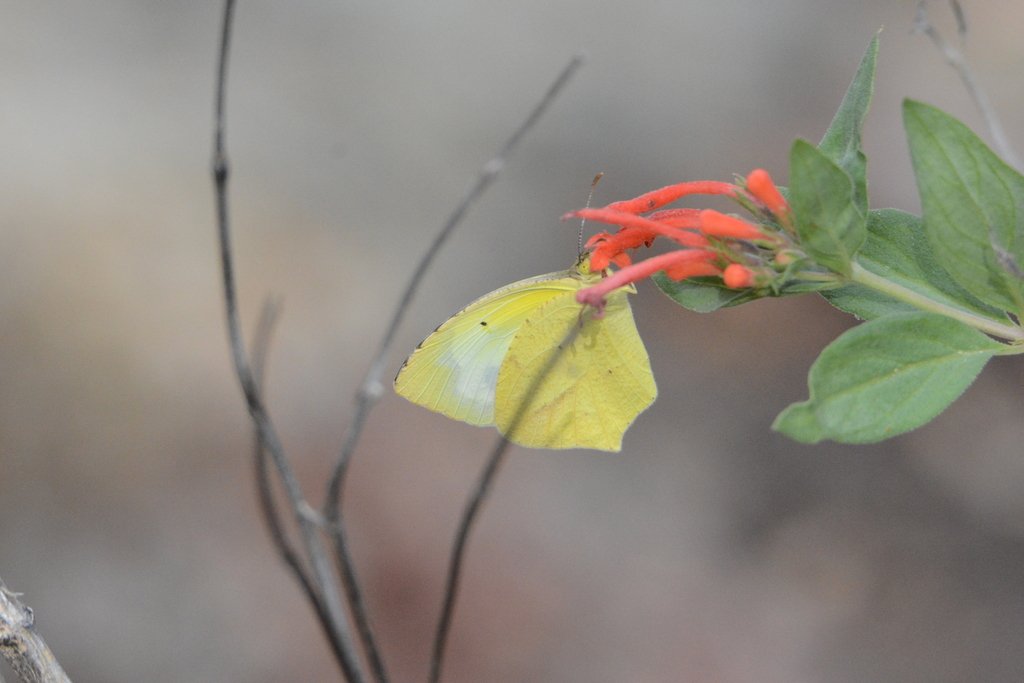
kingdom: Animalia
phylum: Arthropoda
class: Insecta
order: Lepidoptera
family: Pieridae
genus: Eurema
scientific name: Eurema mexicana
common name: Mexican Yellow
